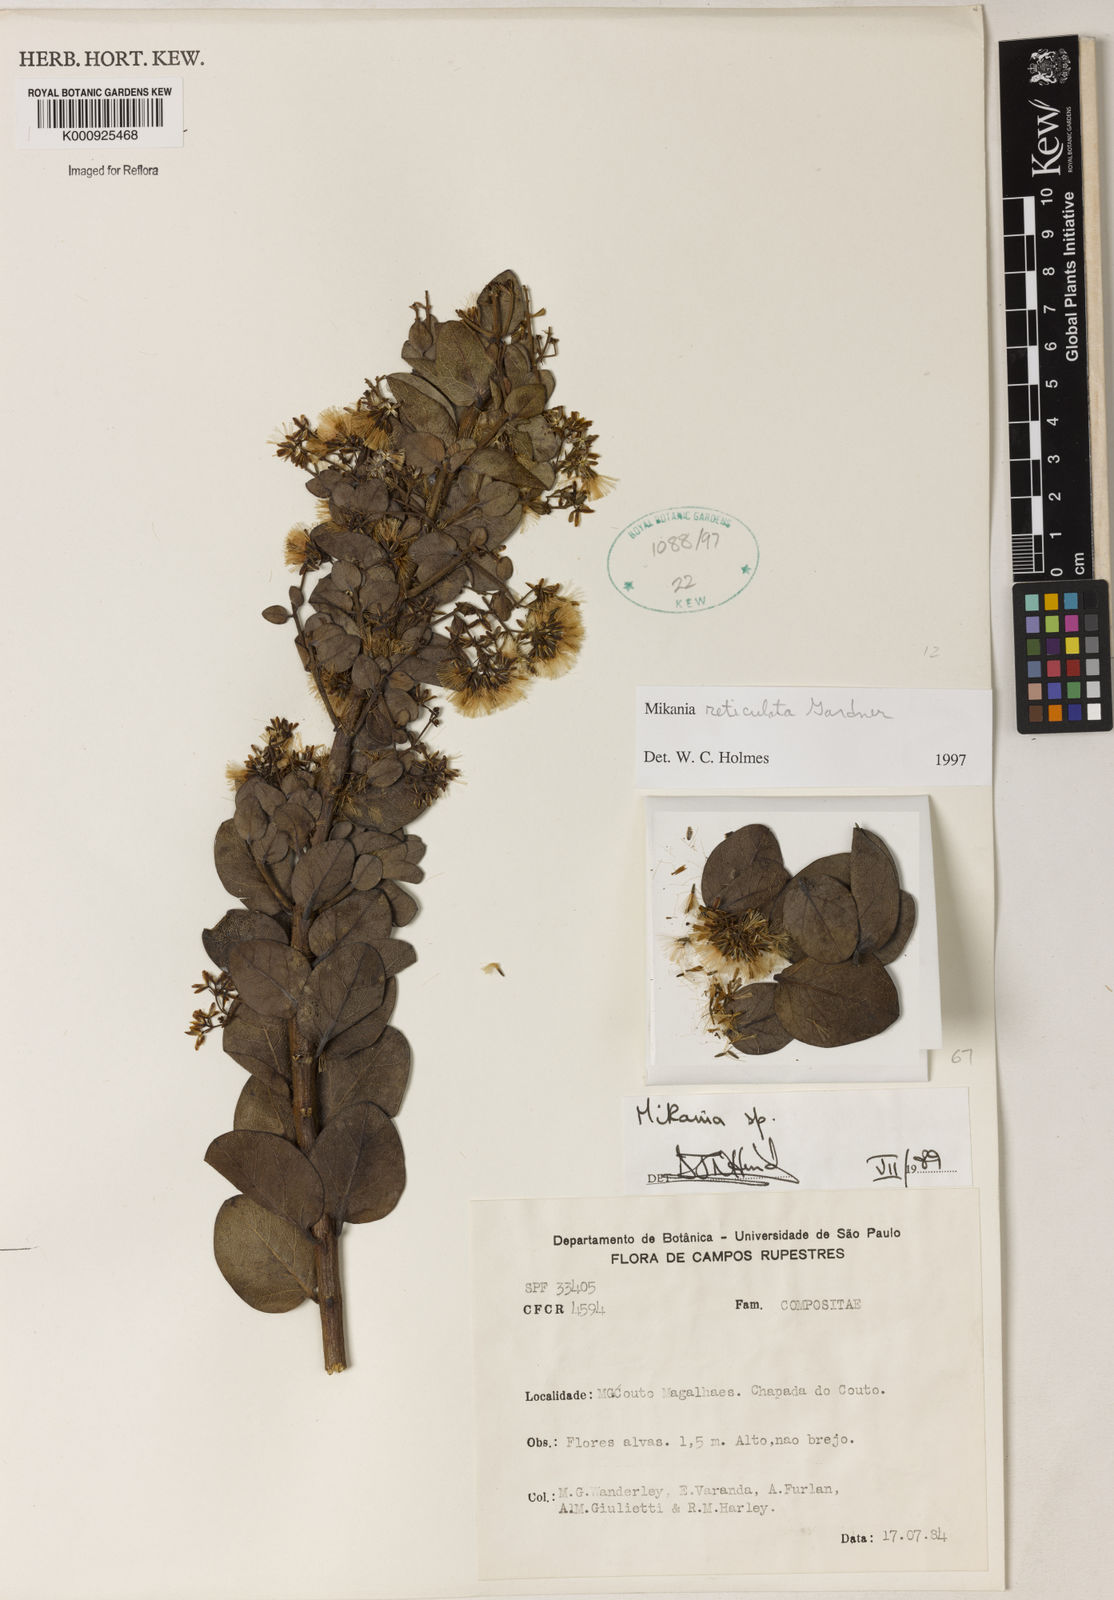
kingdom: Plantae
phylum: Tracheophyta
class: Magnoliopsida
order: Asterales
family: Asteraceae
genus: Mikania
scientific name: Mikania
